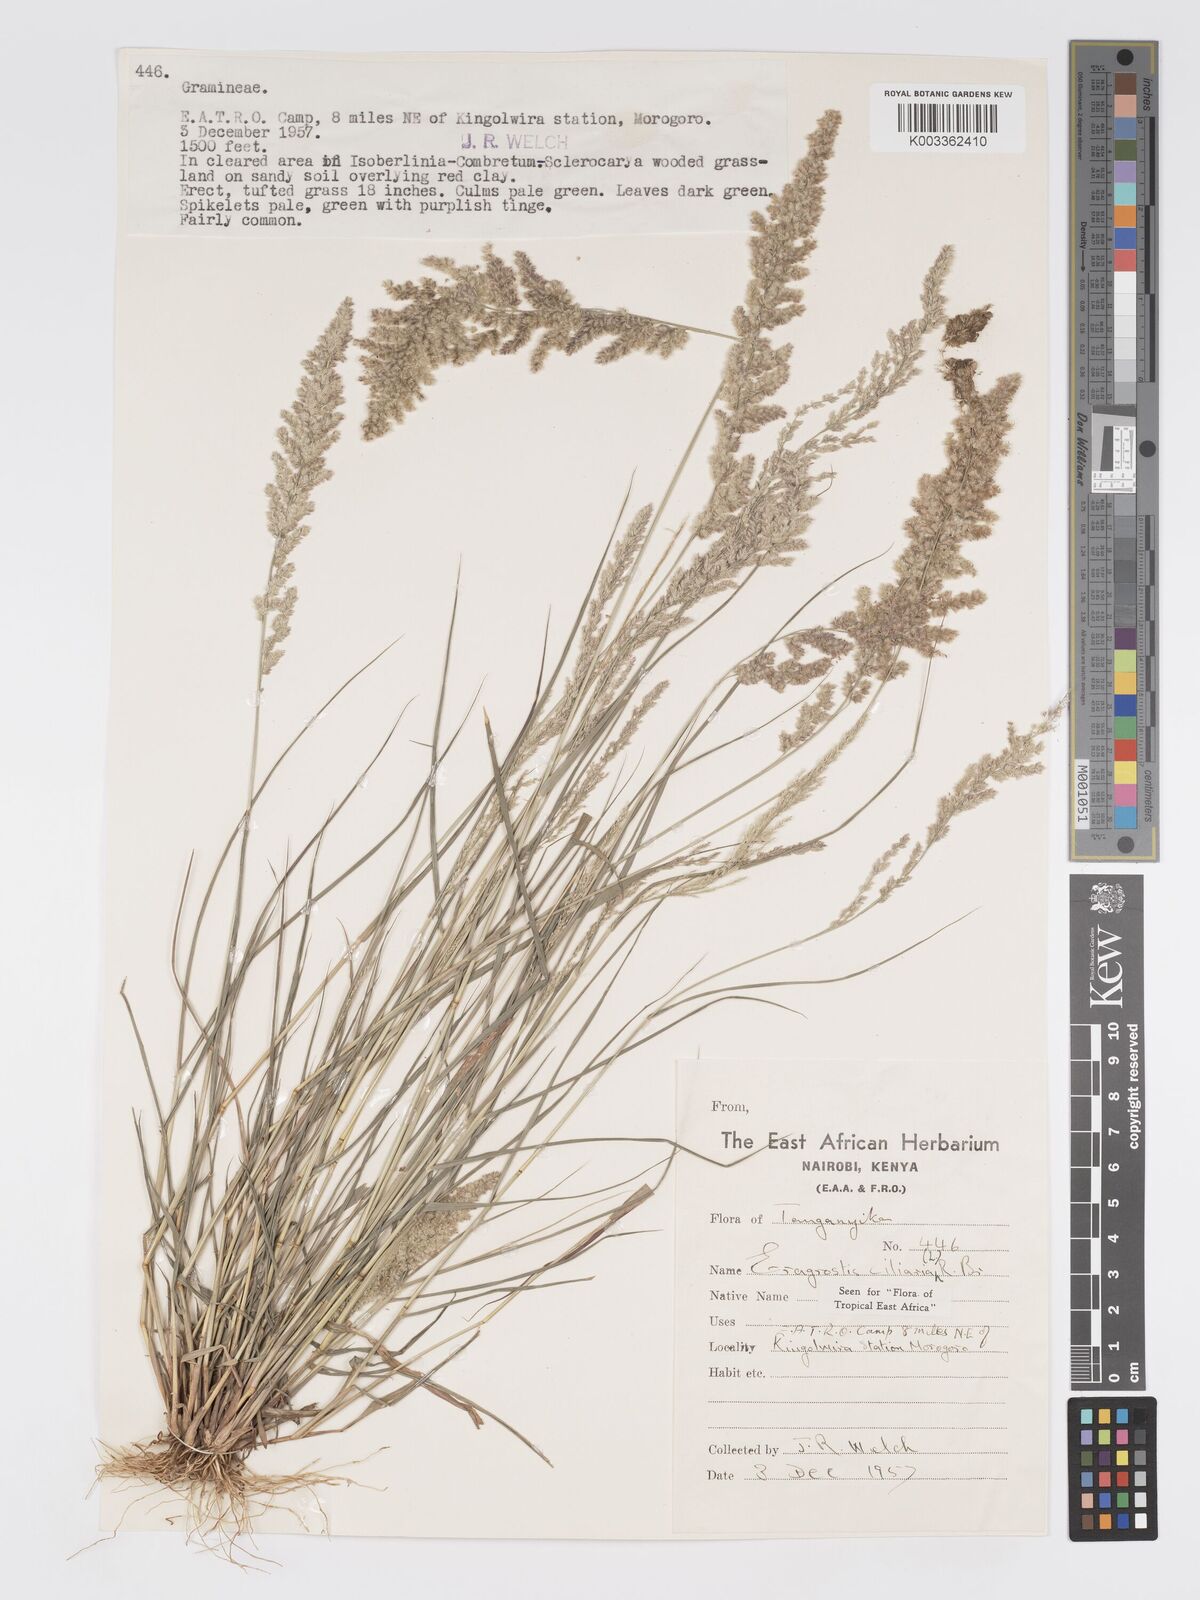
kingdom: Plantae
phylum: Tracheophyta
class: Liliopsida
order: Poales
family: Poaceae
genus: Eragrostis
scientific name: Eragrostis ciliaris
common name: Gophertail lovegrass
